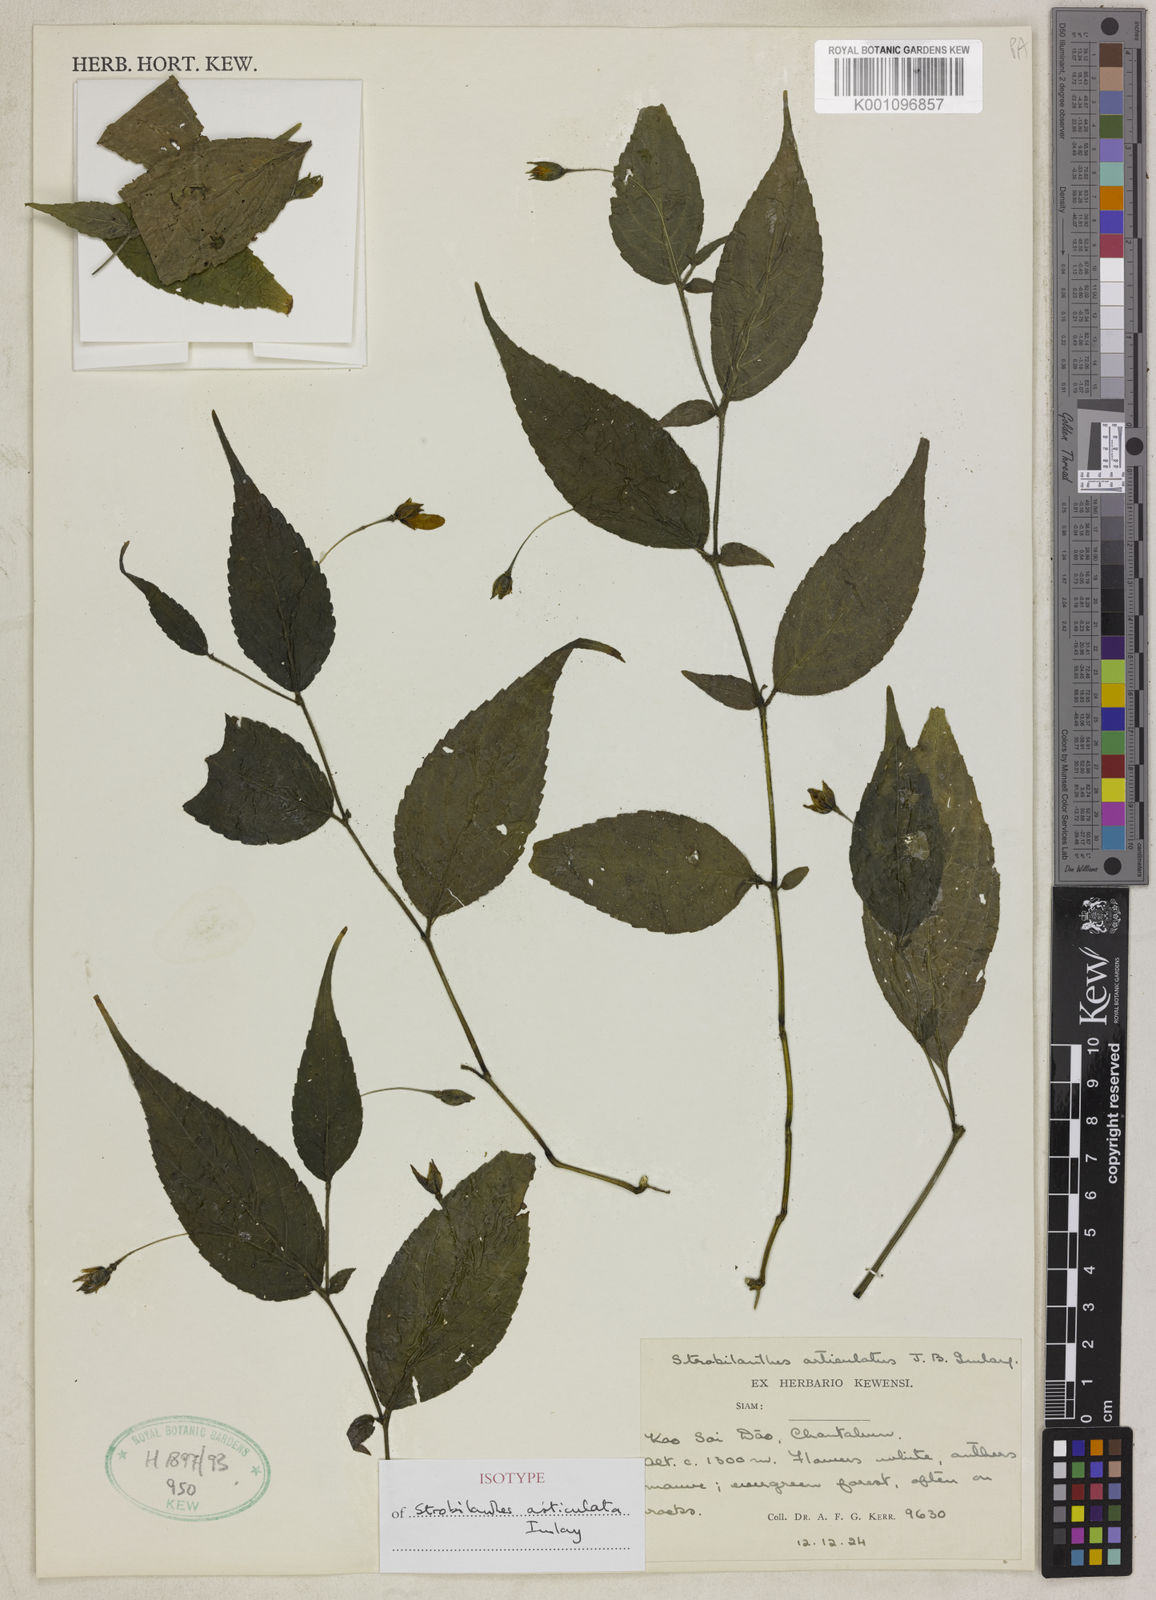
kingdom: Plantae
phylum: Tracheophyta
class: Magnoliopsida
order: Lamiales
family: Acanthaceae
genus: Strobilanthes
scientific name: Strobilanthes articulata
